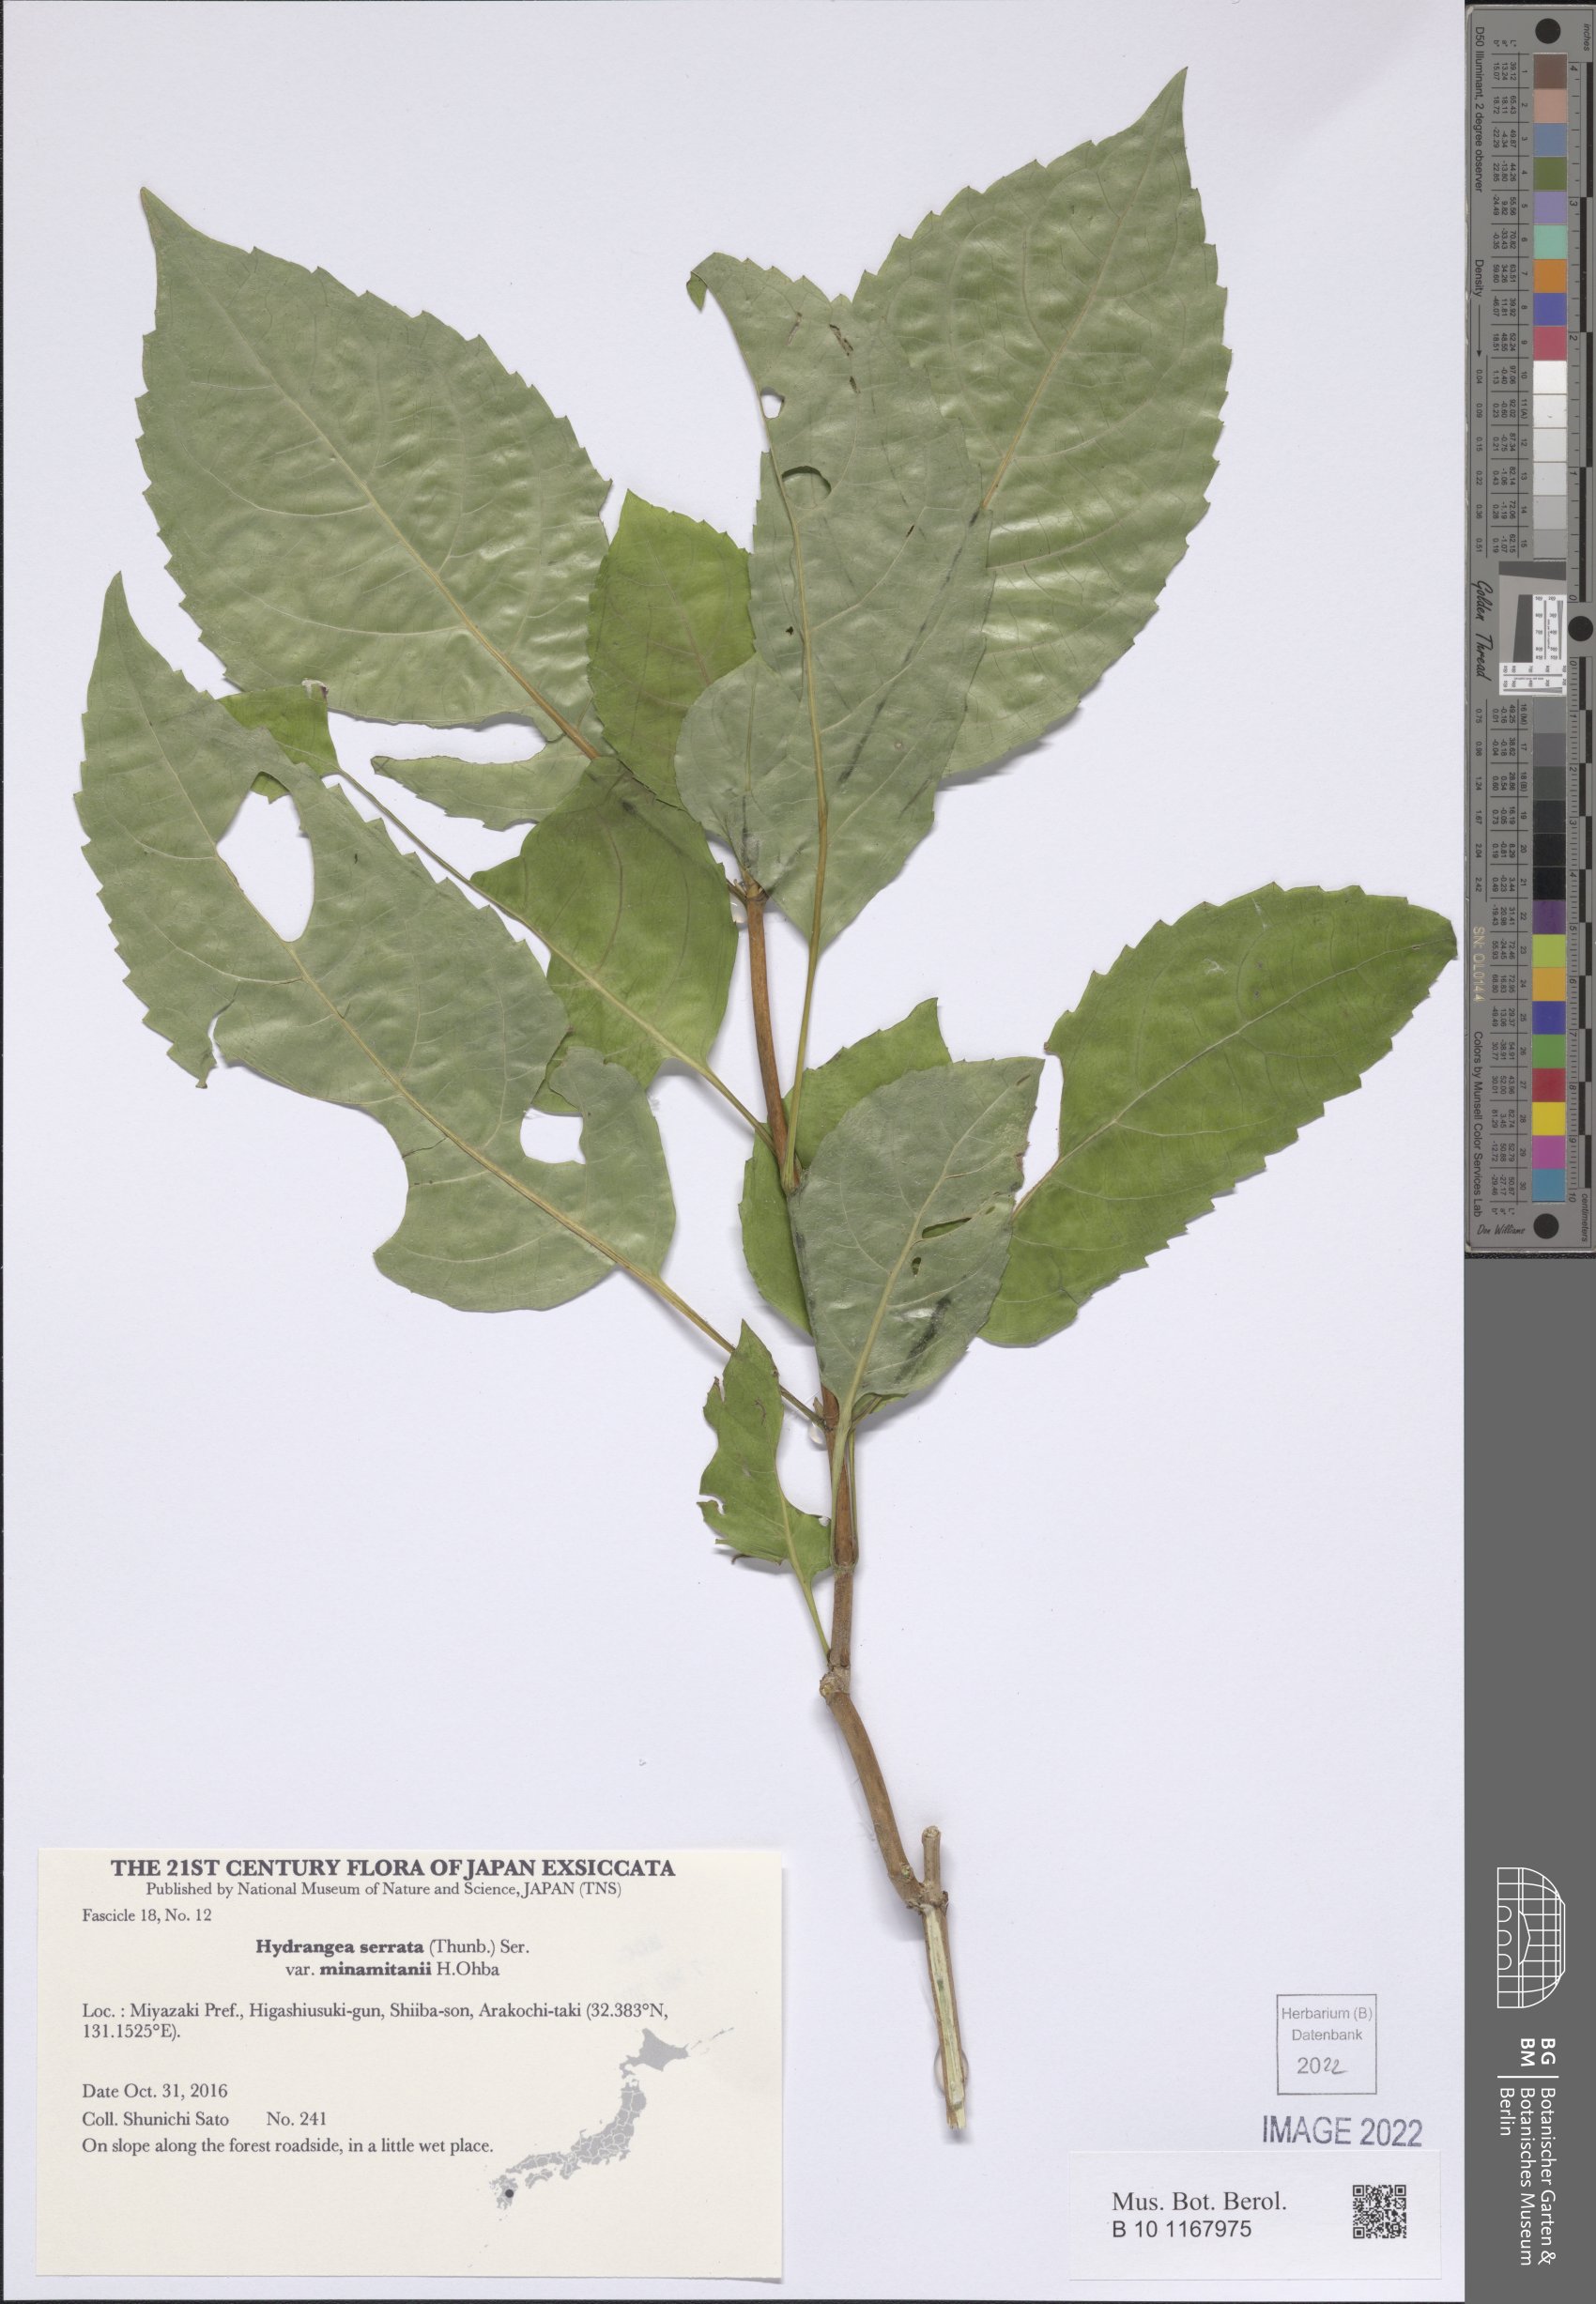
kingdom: Plantae
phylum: Tracheophyta
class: Magnoliopsida
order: Cornales
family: Hydrangeaceae
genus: Hydrangea
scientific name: Hydrangea serrata
